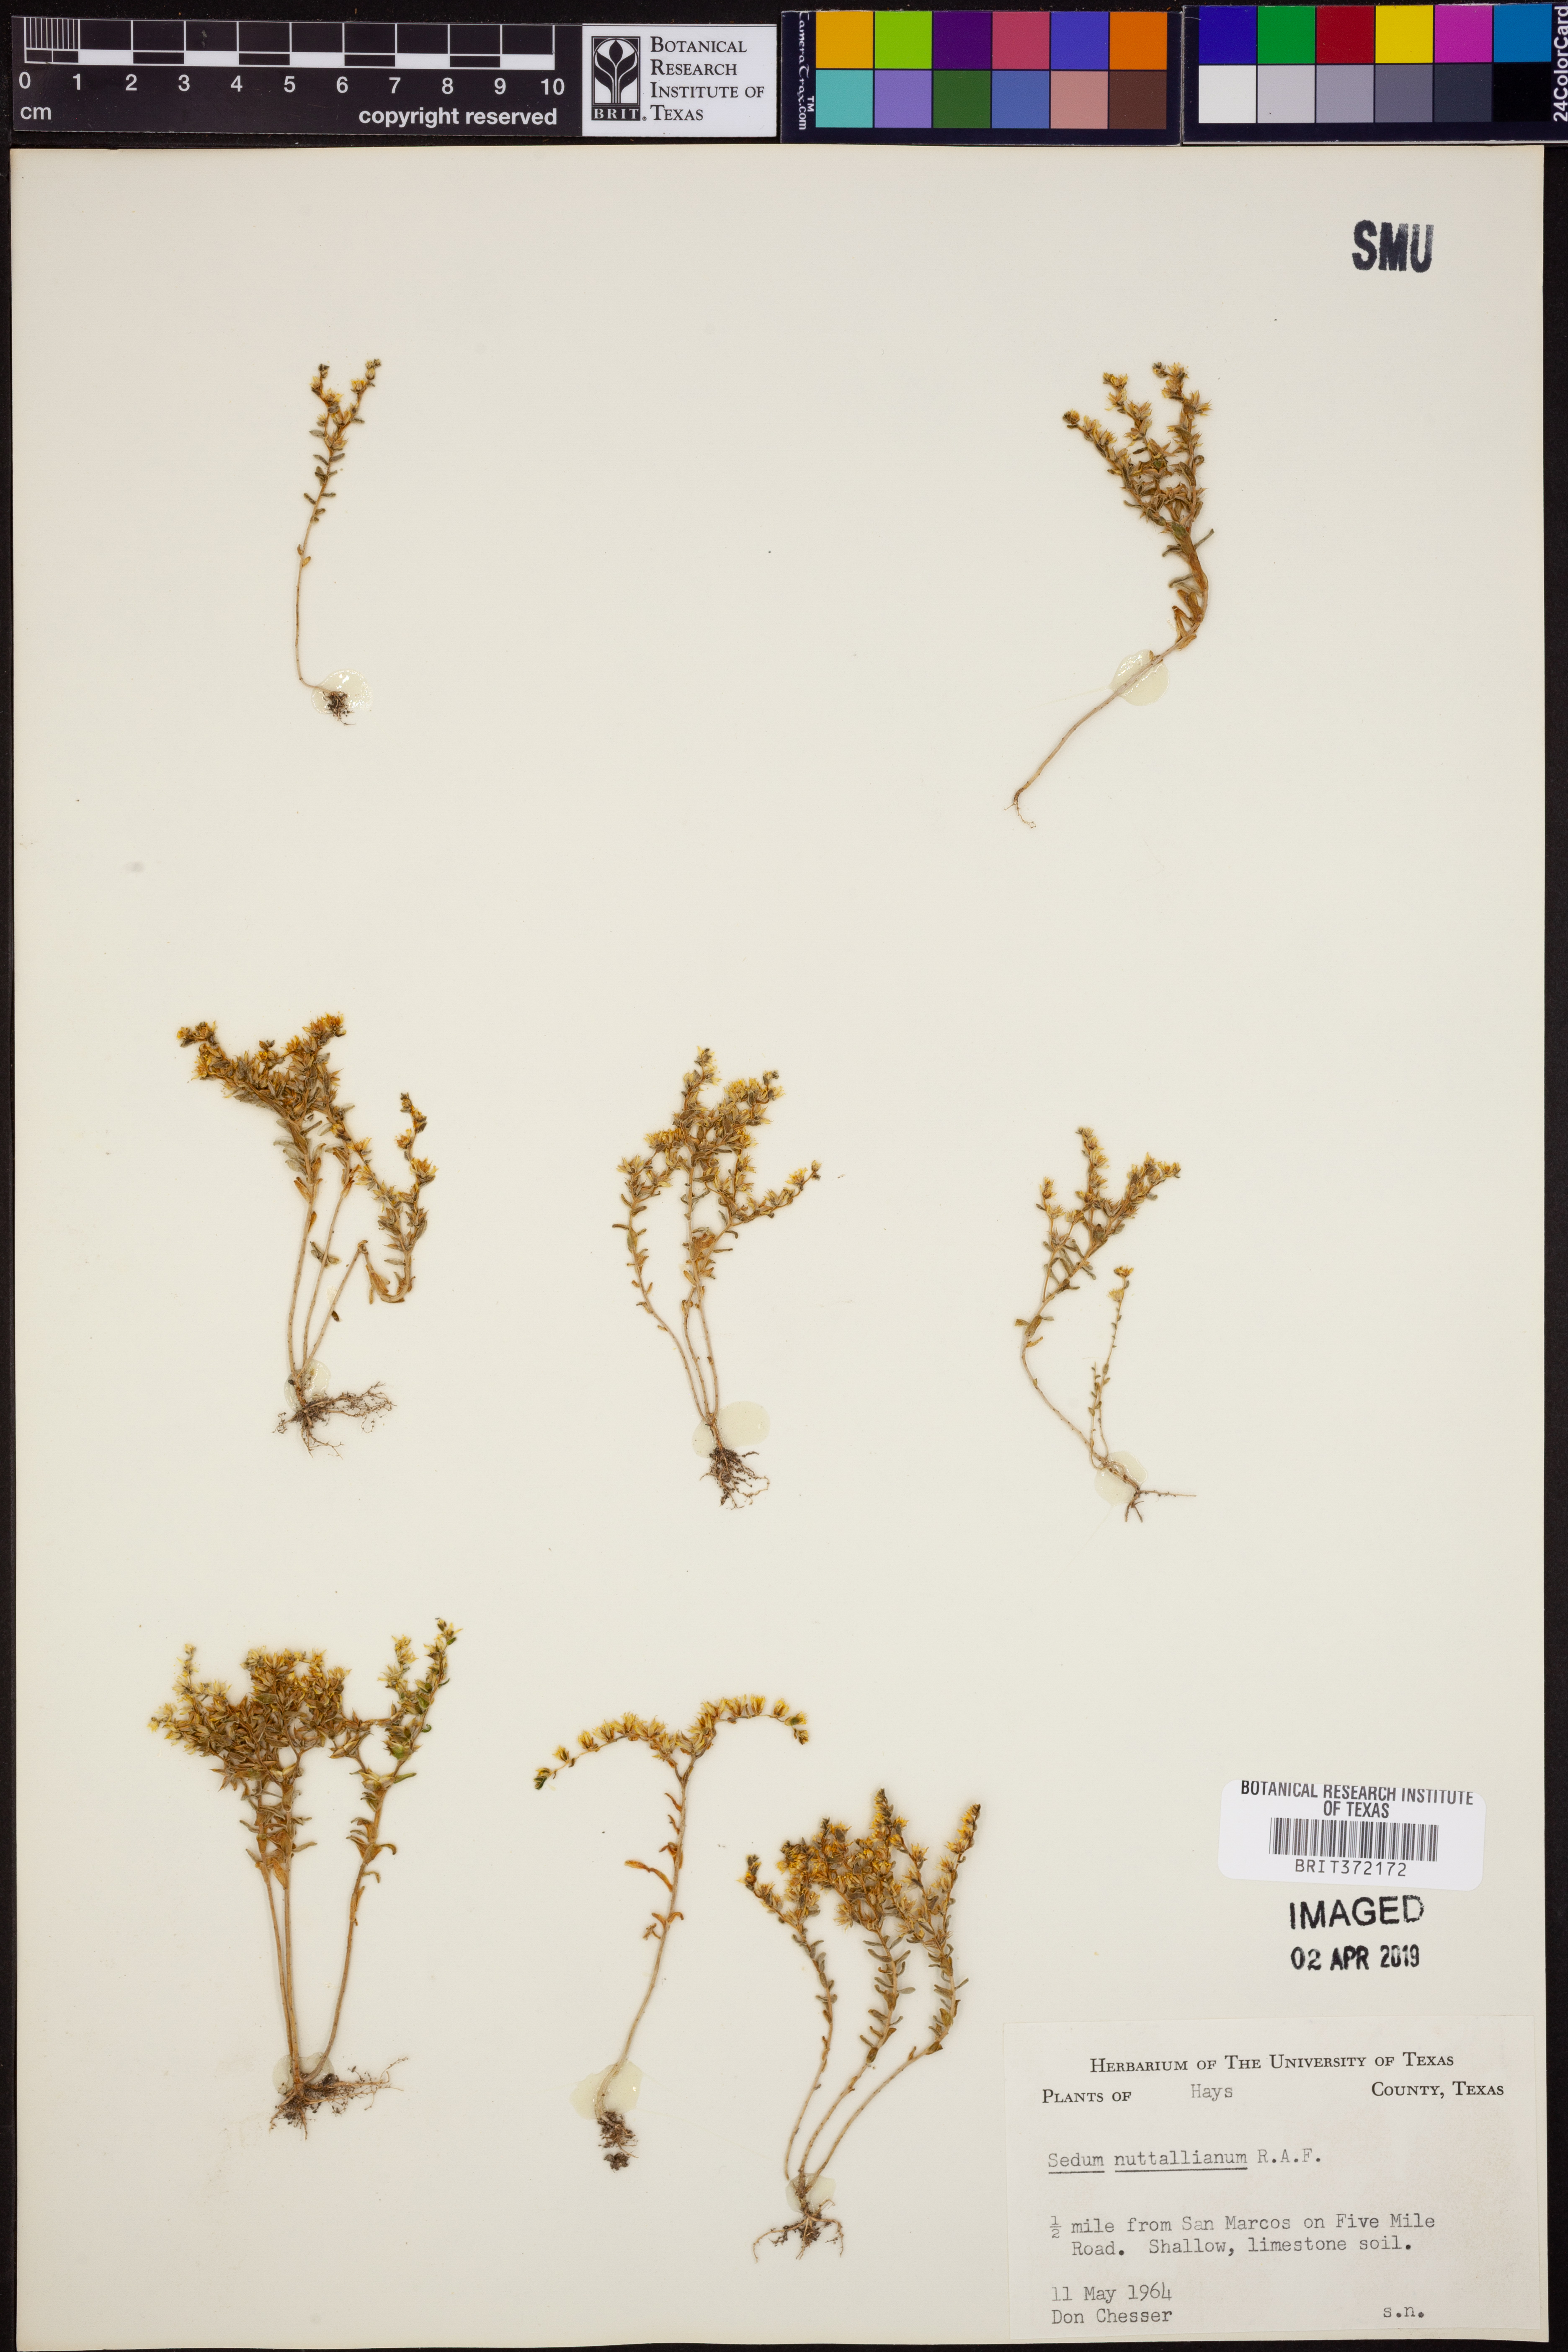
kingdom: Plantae
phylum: Tracheophyta
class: Magnoliopsida
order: Saxifragales
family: Crassulaceae
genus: Sedum
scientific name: Sedum nuttallii
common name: Yellow stonecrop
